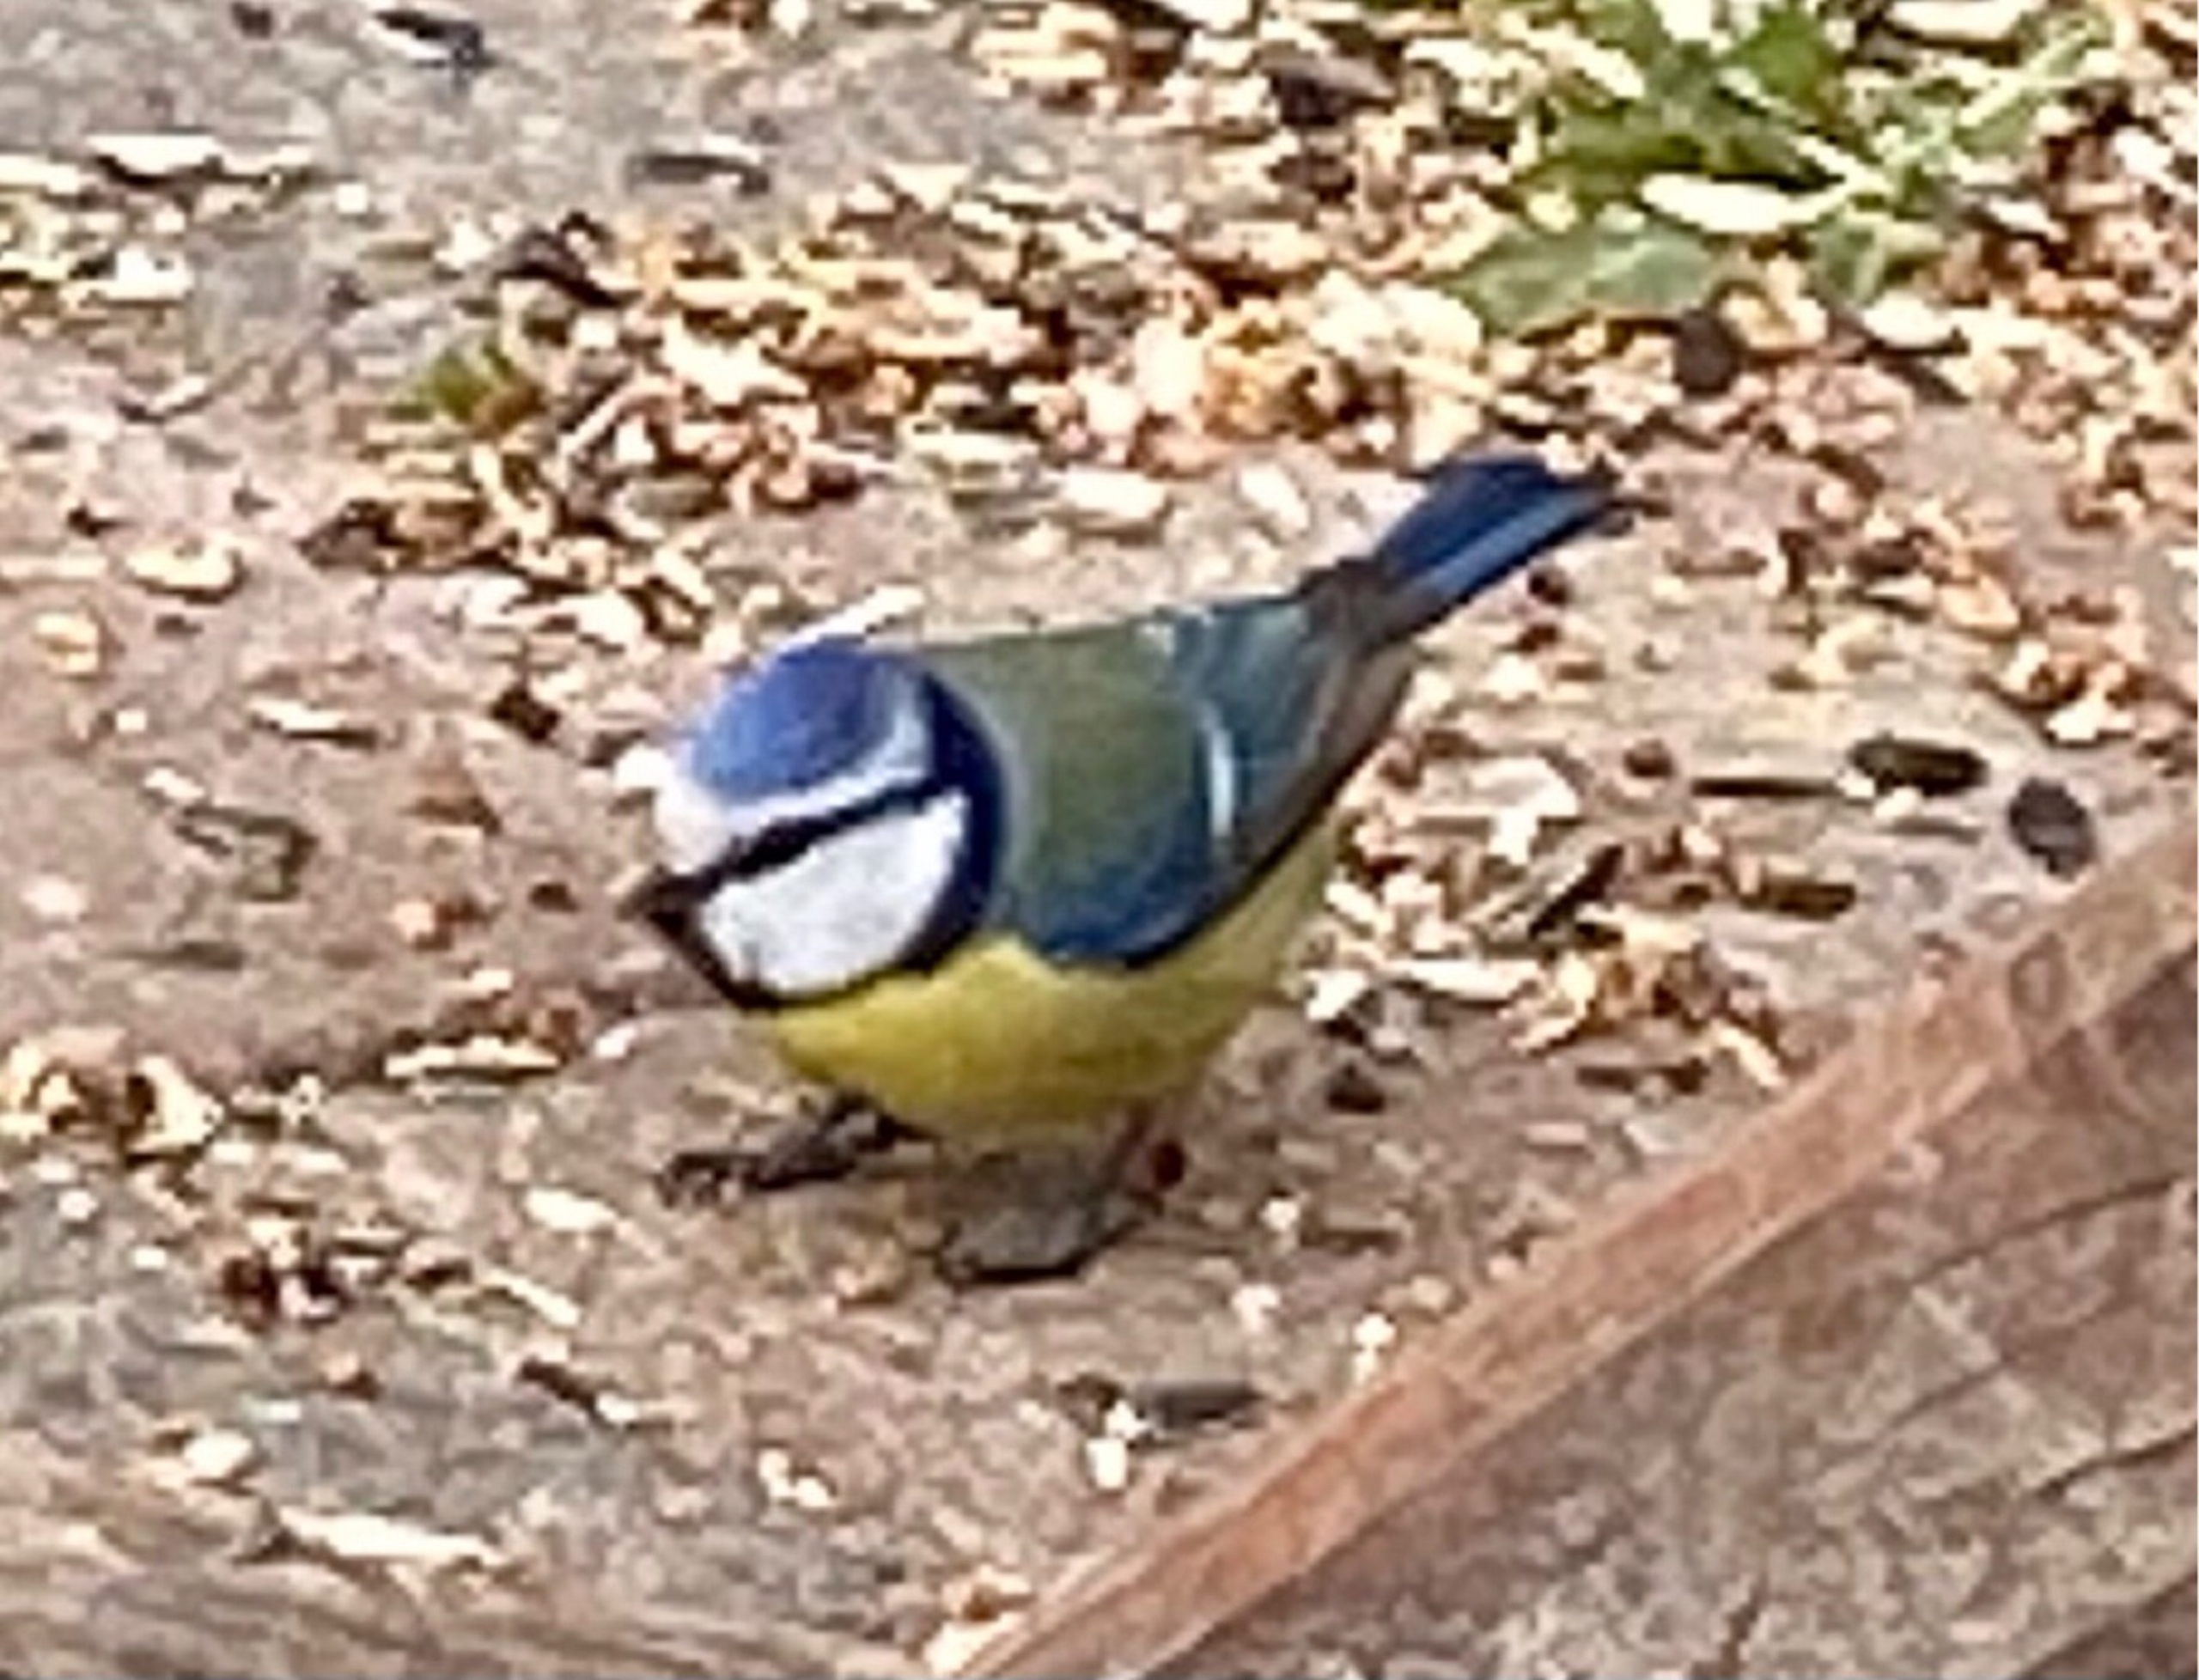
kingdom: Animalia
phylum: Chordata
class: Aves
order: Passeriformes
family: Paridae
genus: Cyanistes
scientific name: Cyanistes caeruleus
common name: Blåmejse
